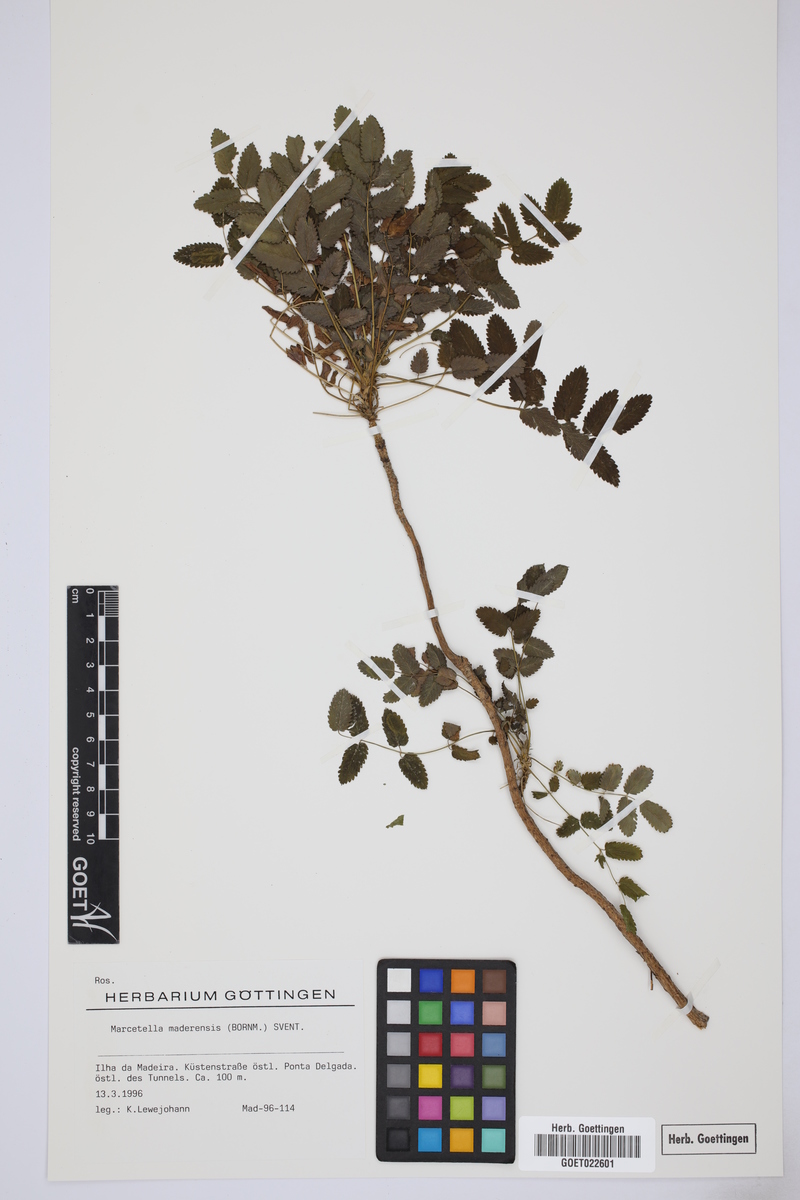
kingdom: Plantae
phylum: Tracheophyta
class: Magnoliopsida
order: Rosales
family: Rosaceae
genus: Marcetella
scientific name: Marcetella maderensis
